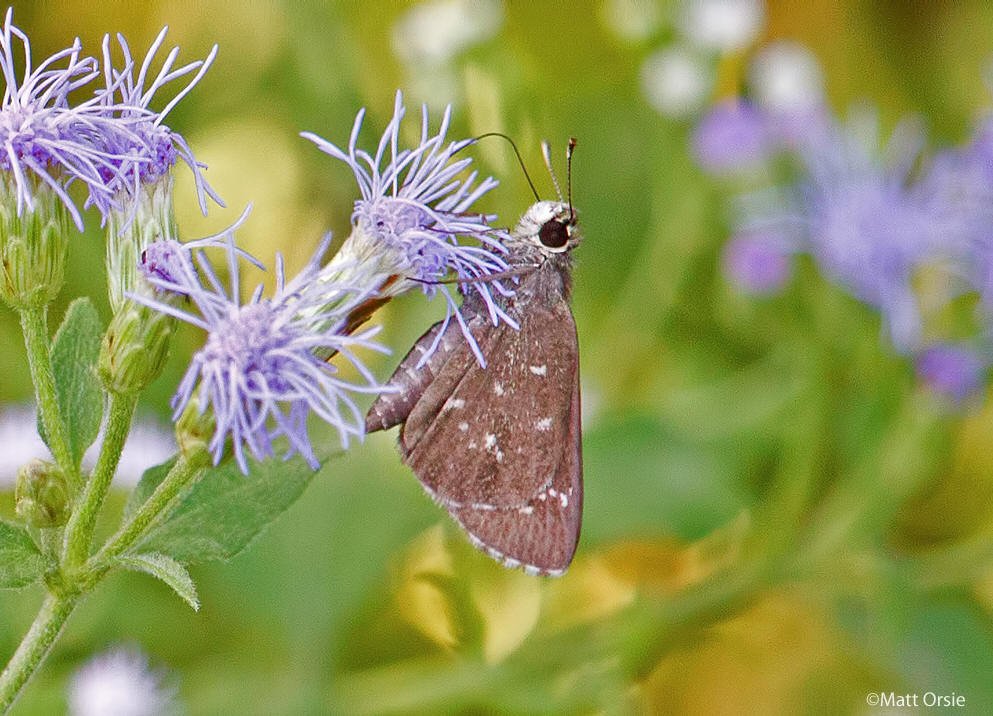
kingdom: Animalia
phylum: Arthropoda
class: Insecta
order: Lepidoptera
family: Hesperiidae
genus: Mastor
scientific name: Mastor celia
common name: Celia's Roadside-Skipper
